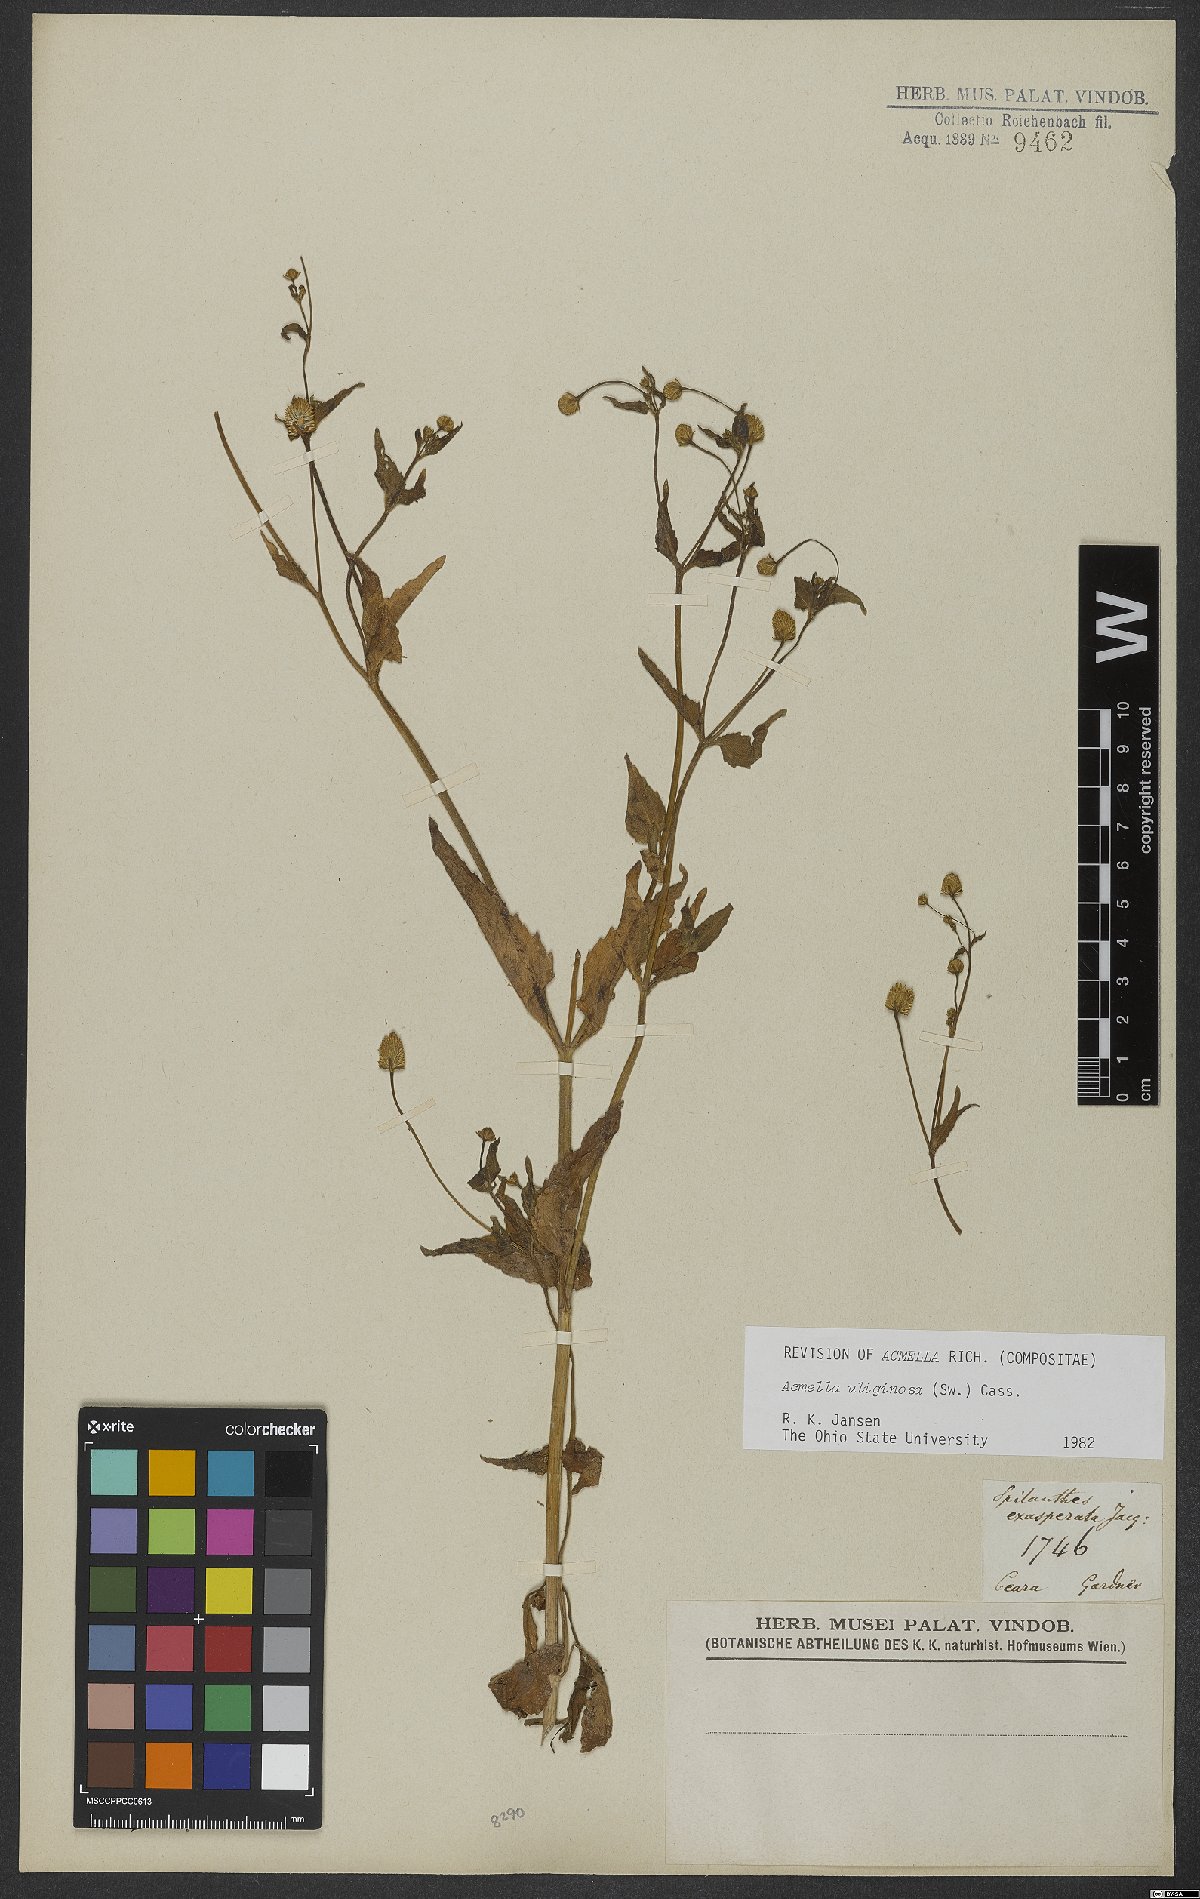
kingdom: Plantae
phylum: Tracheophyta
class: Magnoliopsida
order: Asterales
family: Asteraceae
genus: Acmella
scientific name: Acmella uliginosa
